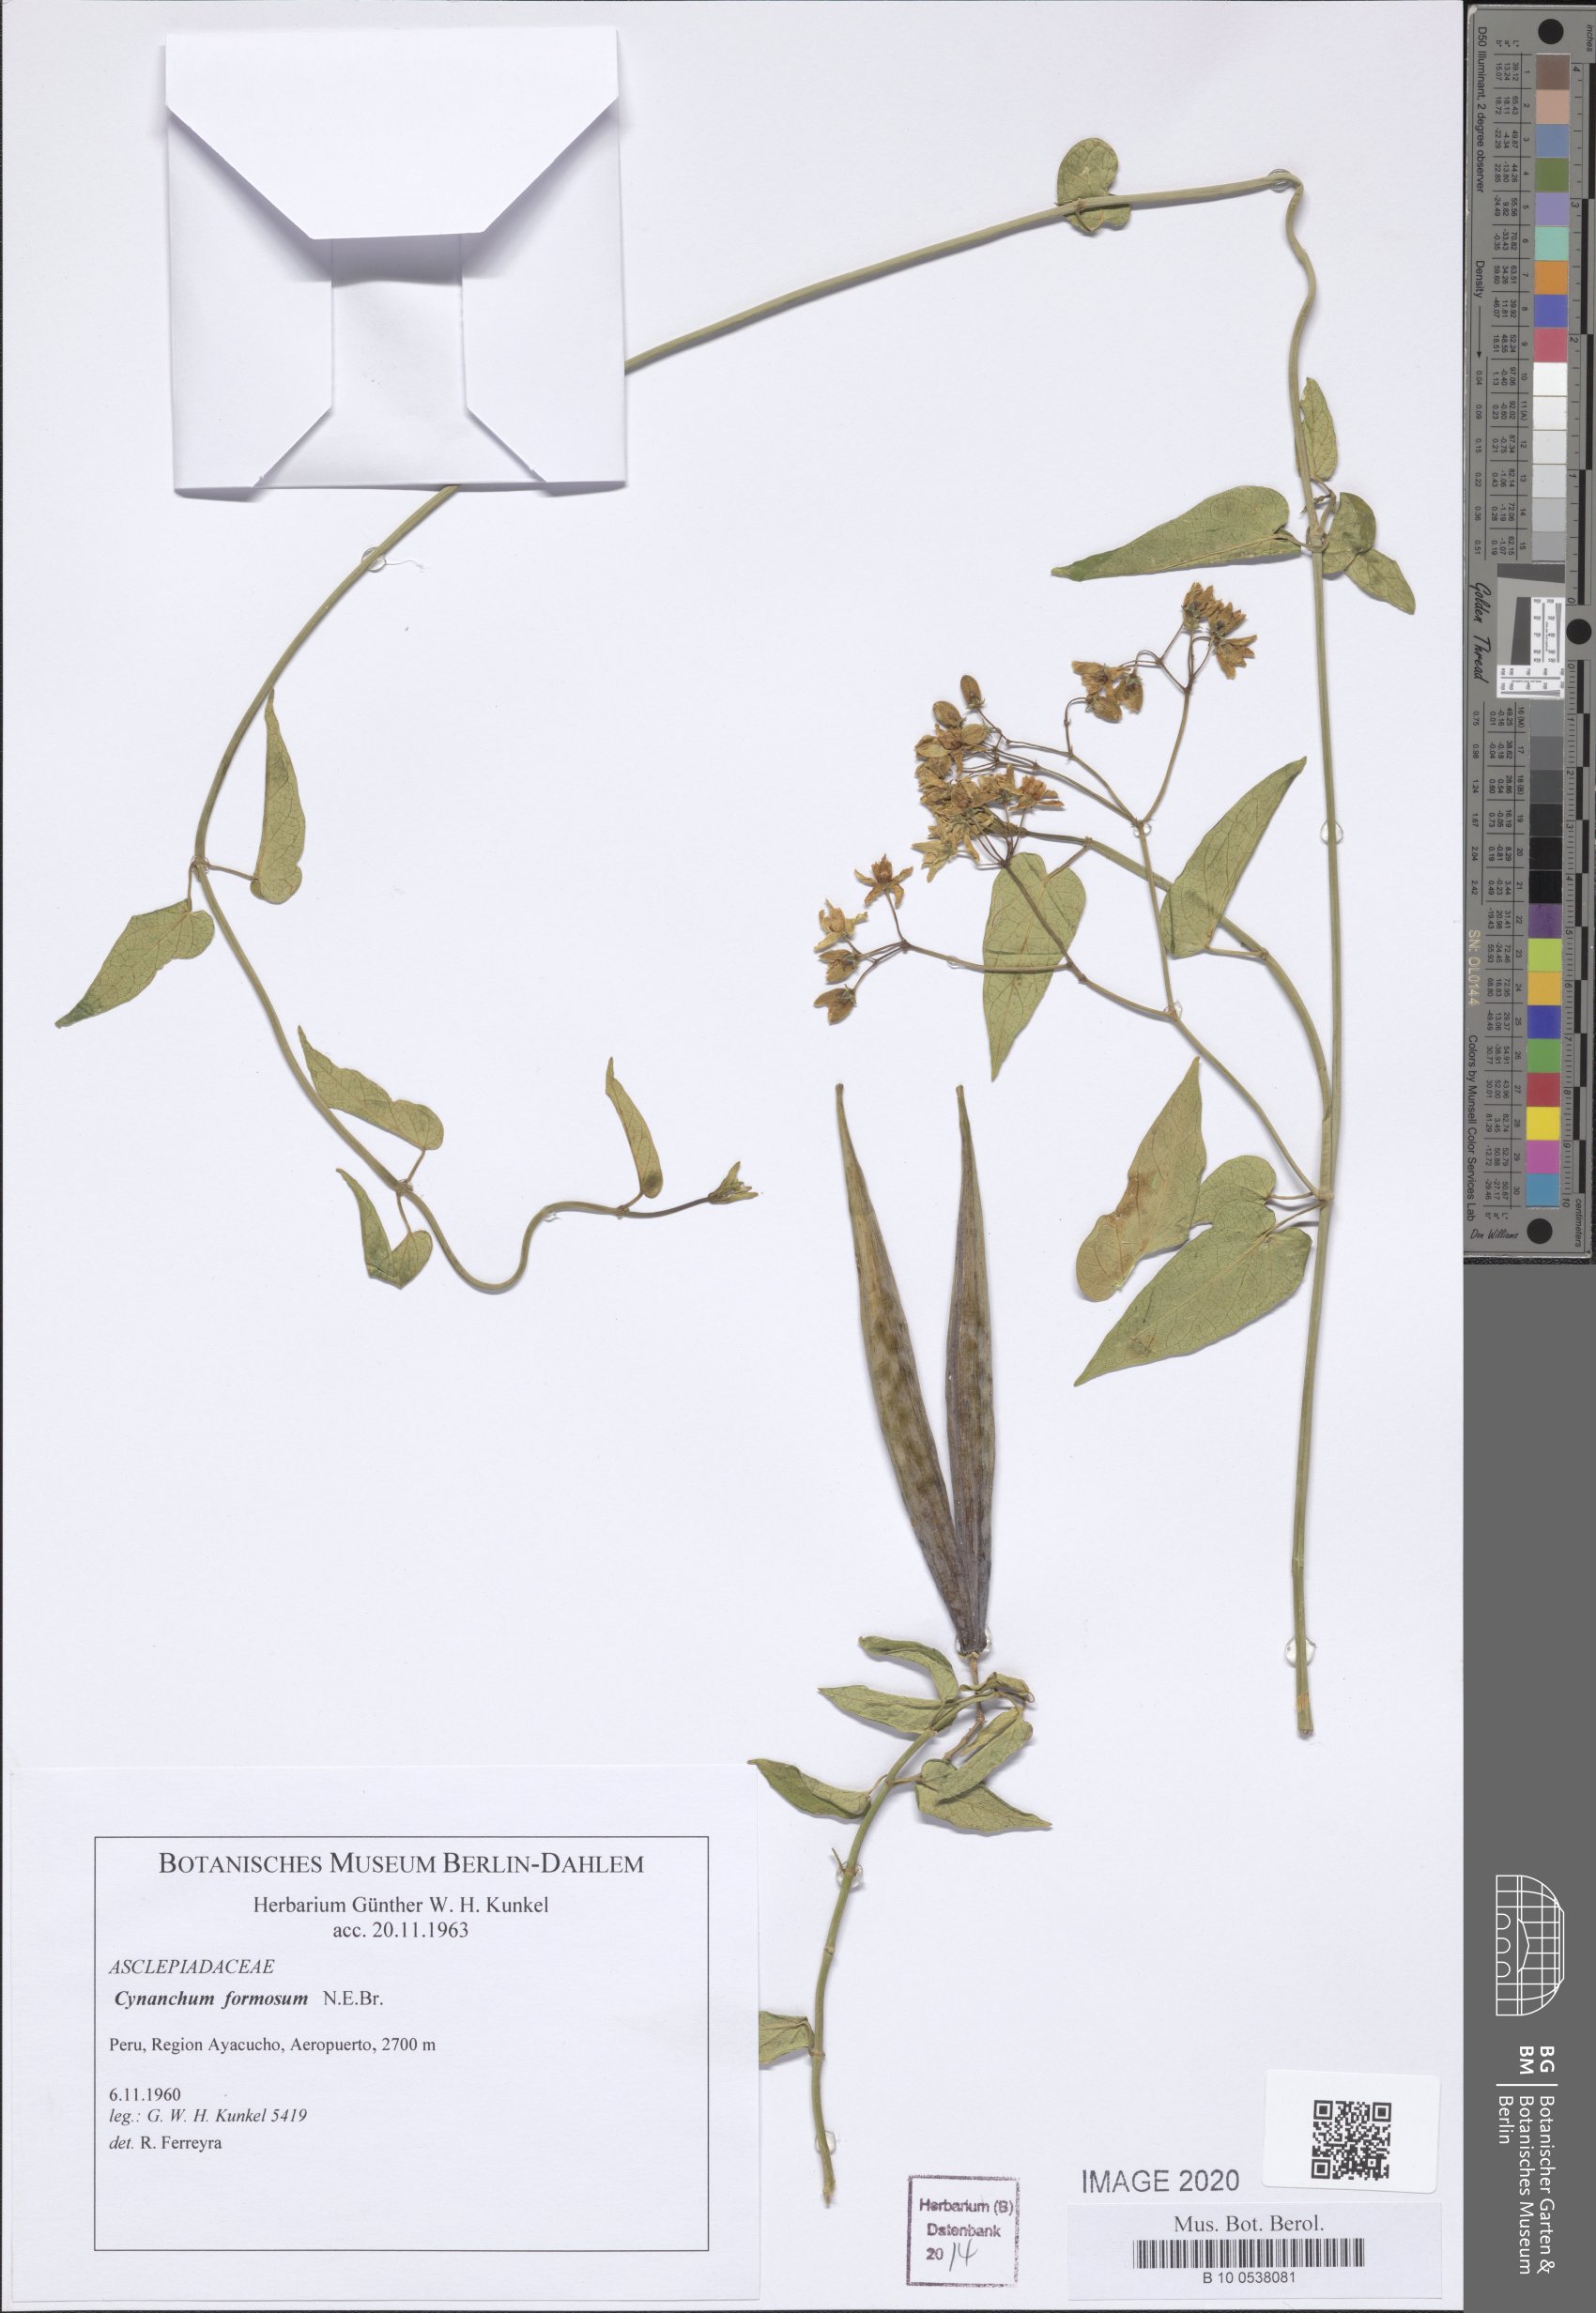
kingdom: Plantae
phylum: Tracheophyta
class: Magnoliopsida
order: Gentianales
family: Apocynaceae
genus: Jobinia
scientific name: Jobinia formosa
